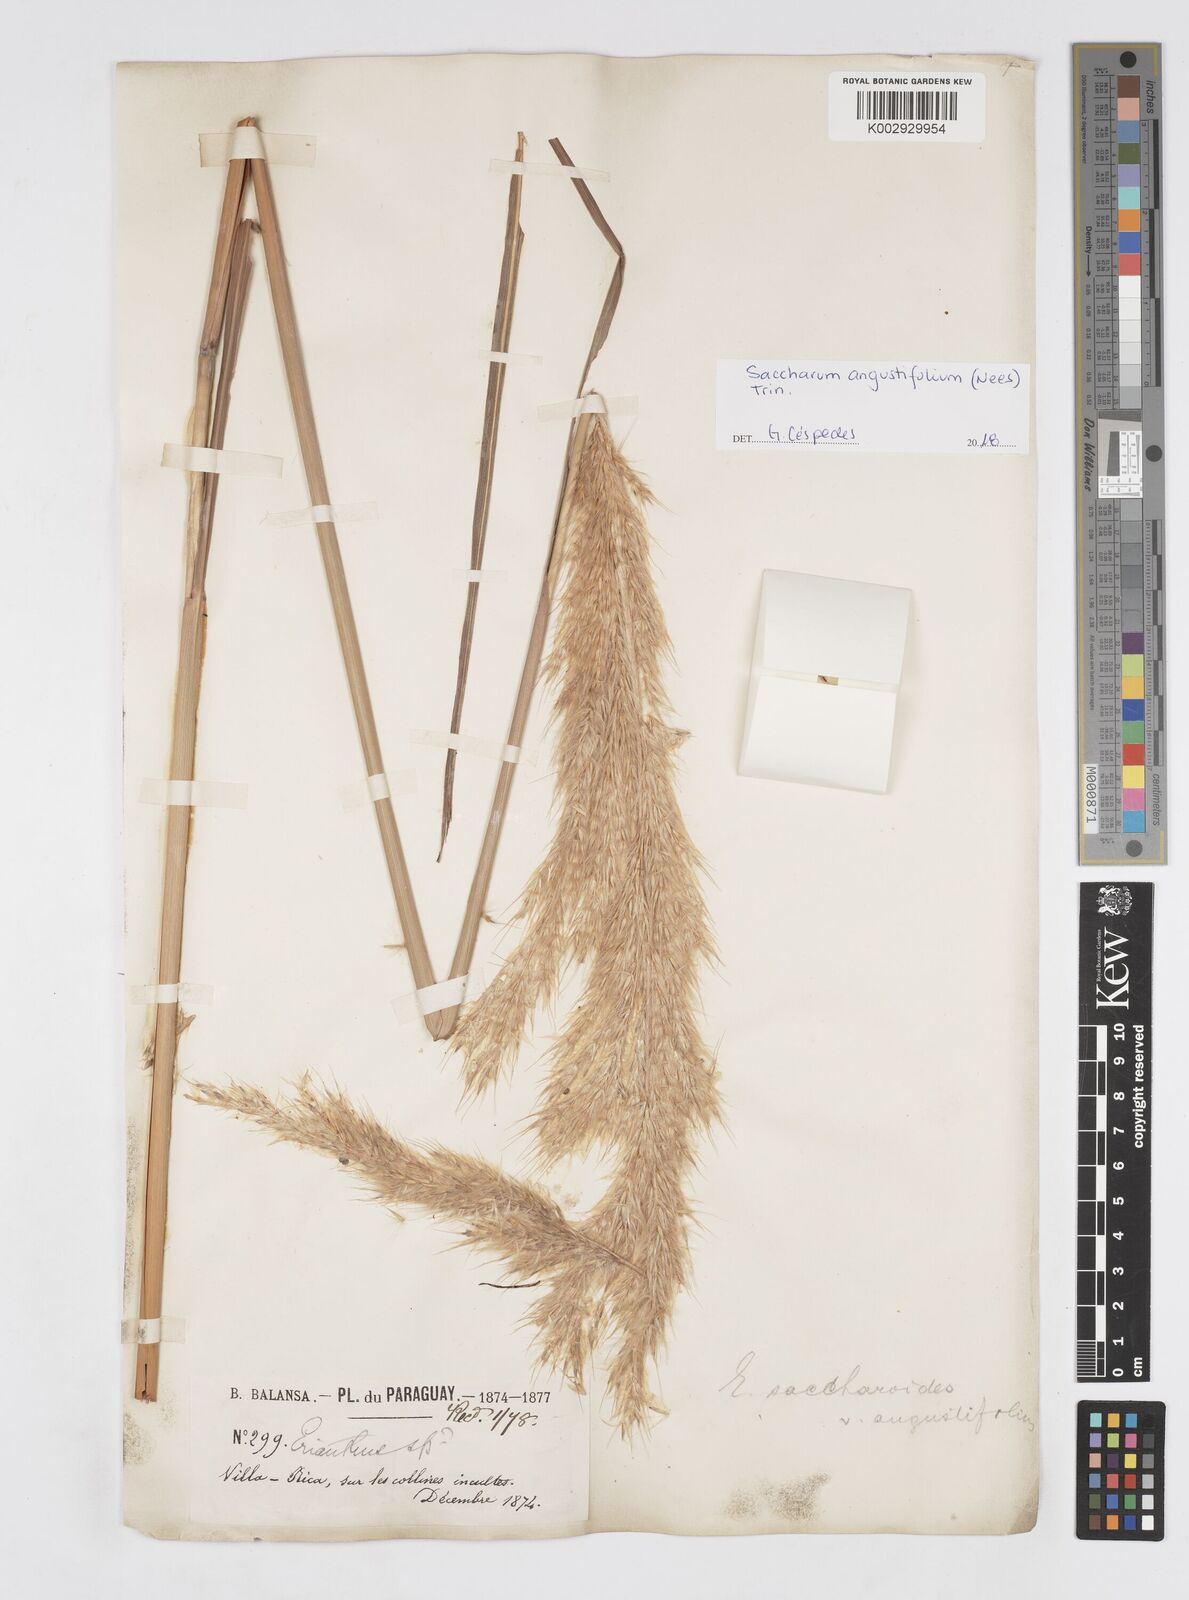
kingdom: Plantae
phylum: Tracheophyta
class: Liliopsida
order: Poales
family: Poaceae
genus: Saccharum
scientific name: Saccharum angustifolium
